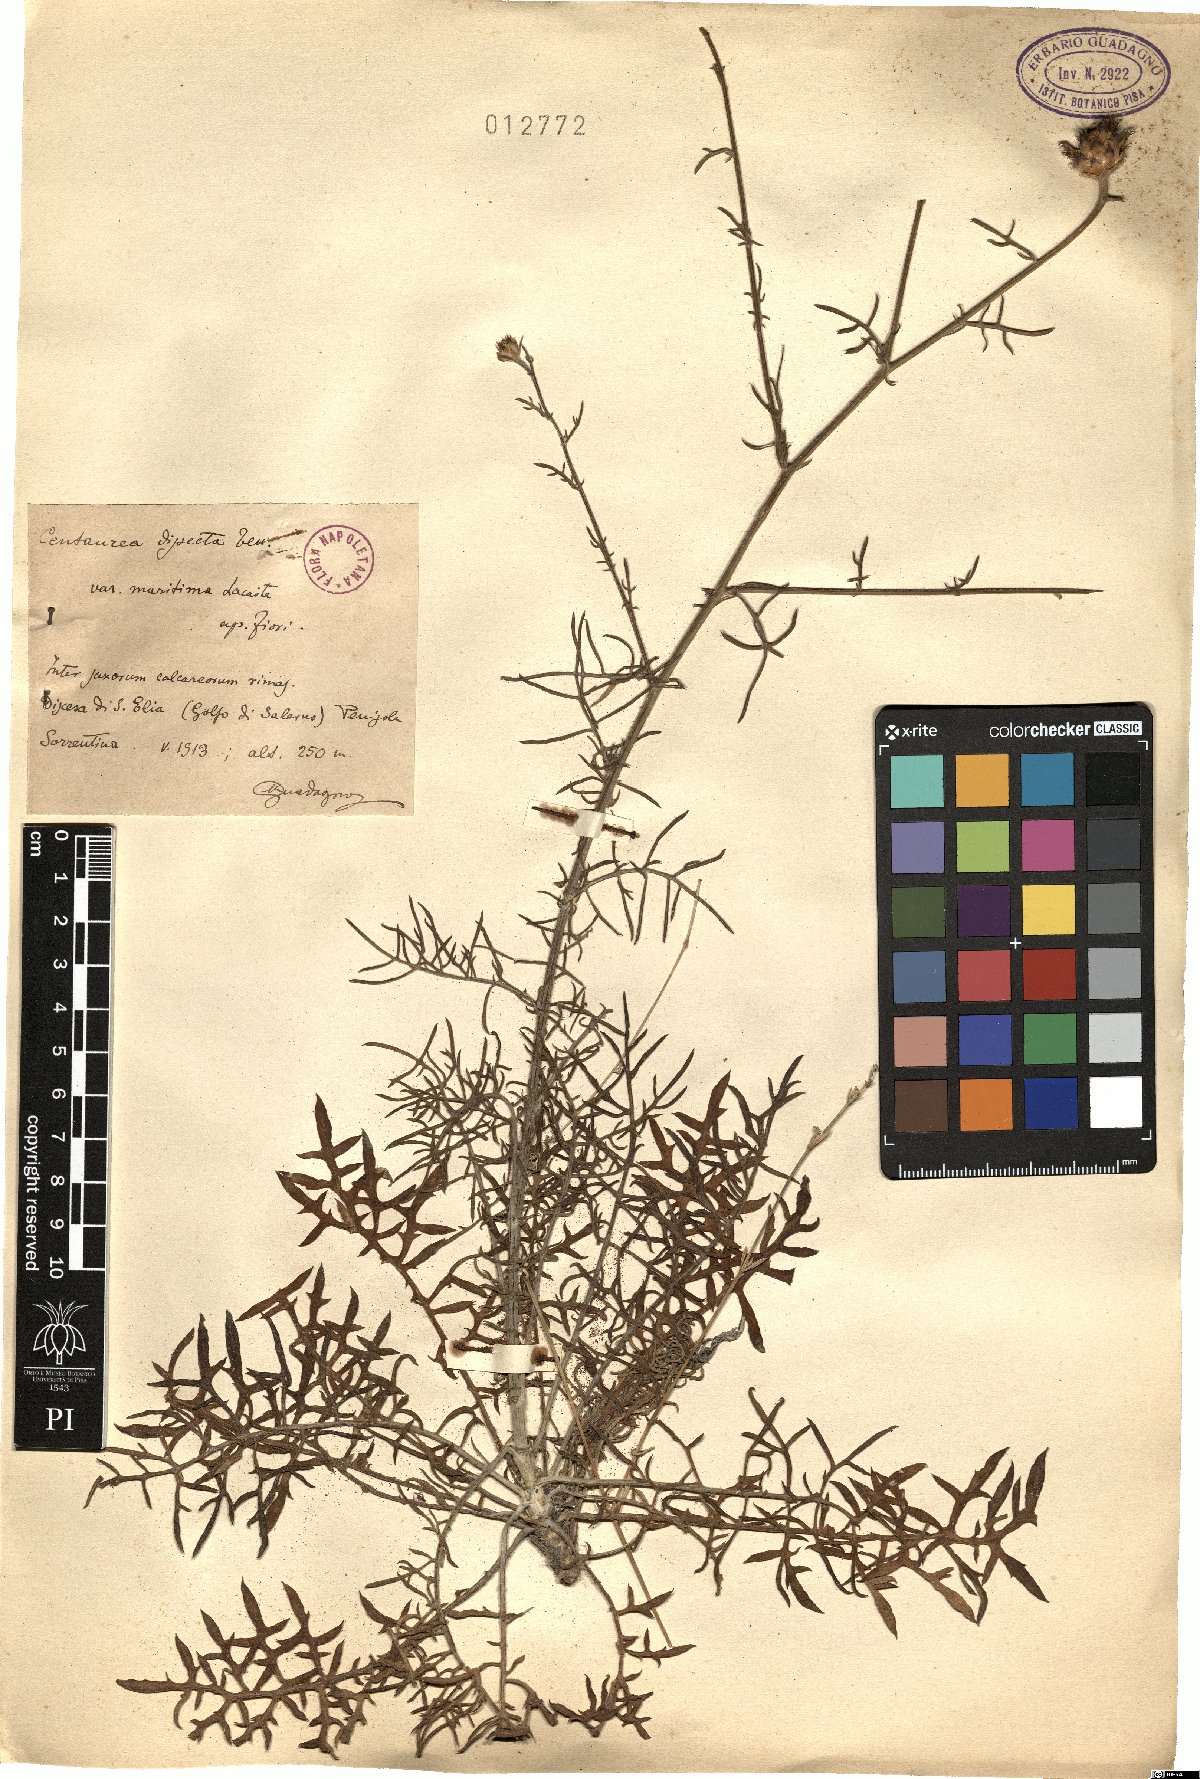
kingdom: Plantae
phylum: Tracheophyta
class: Magnoliopsida
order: Asterales
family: Asteraceae
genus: Centaurea
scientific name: Centaurea tenorei
